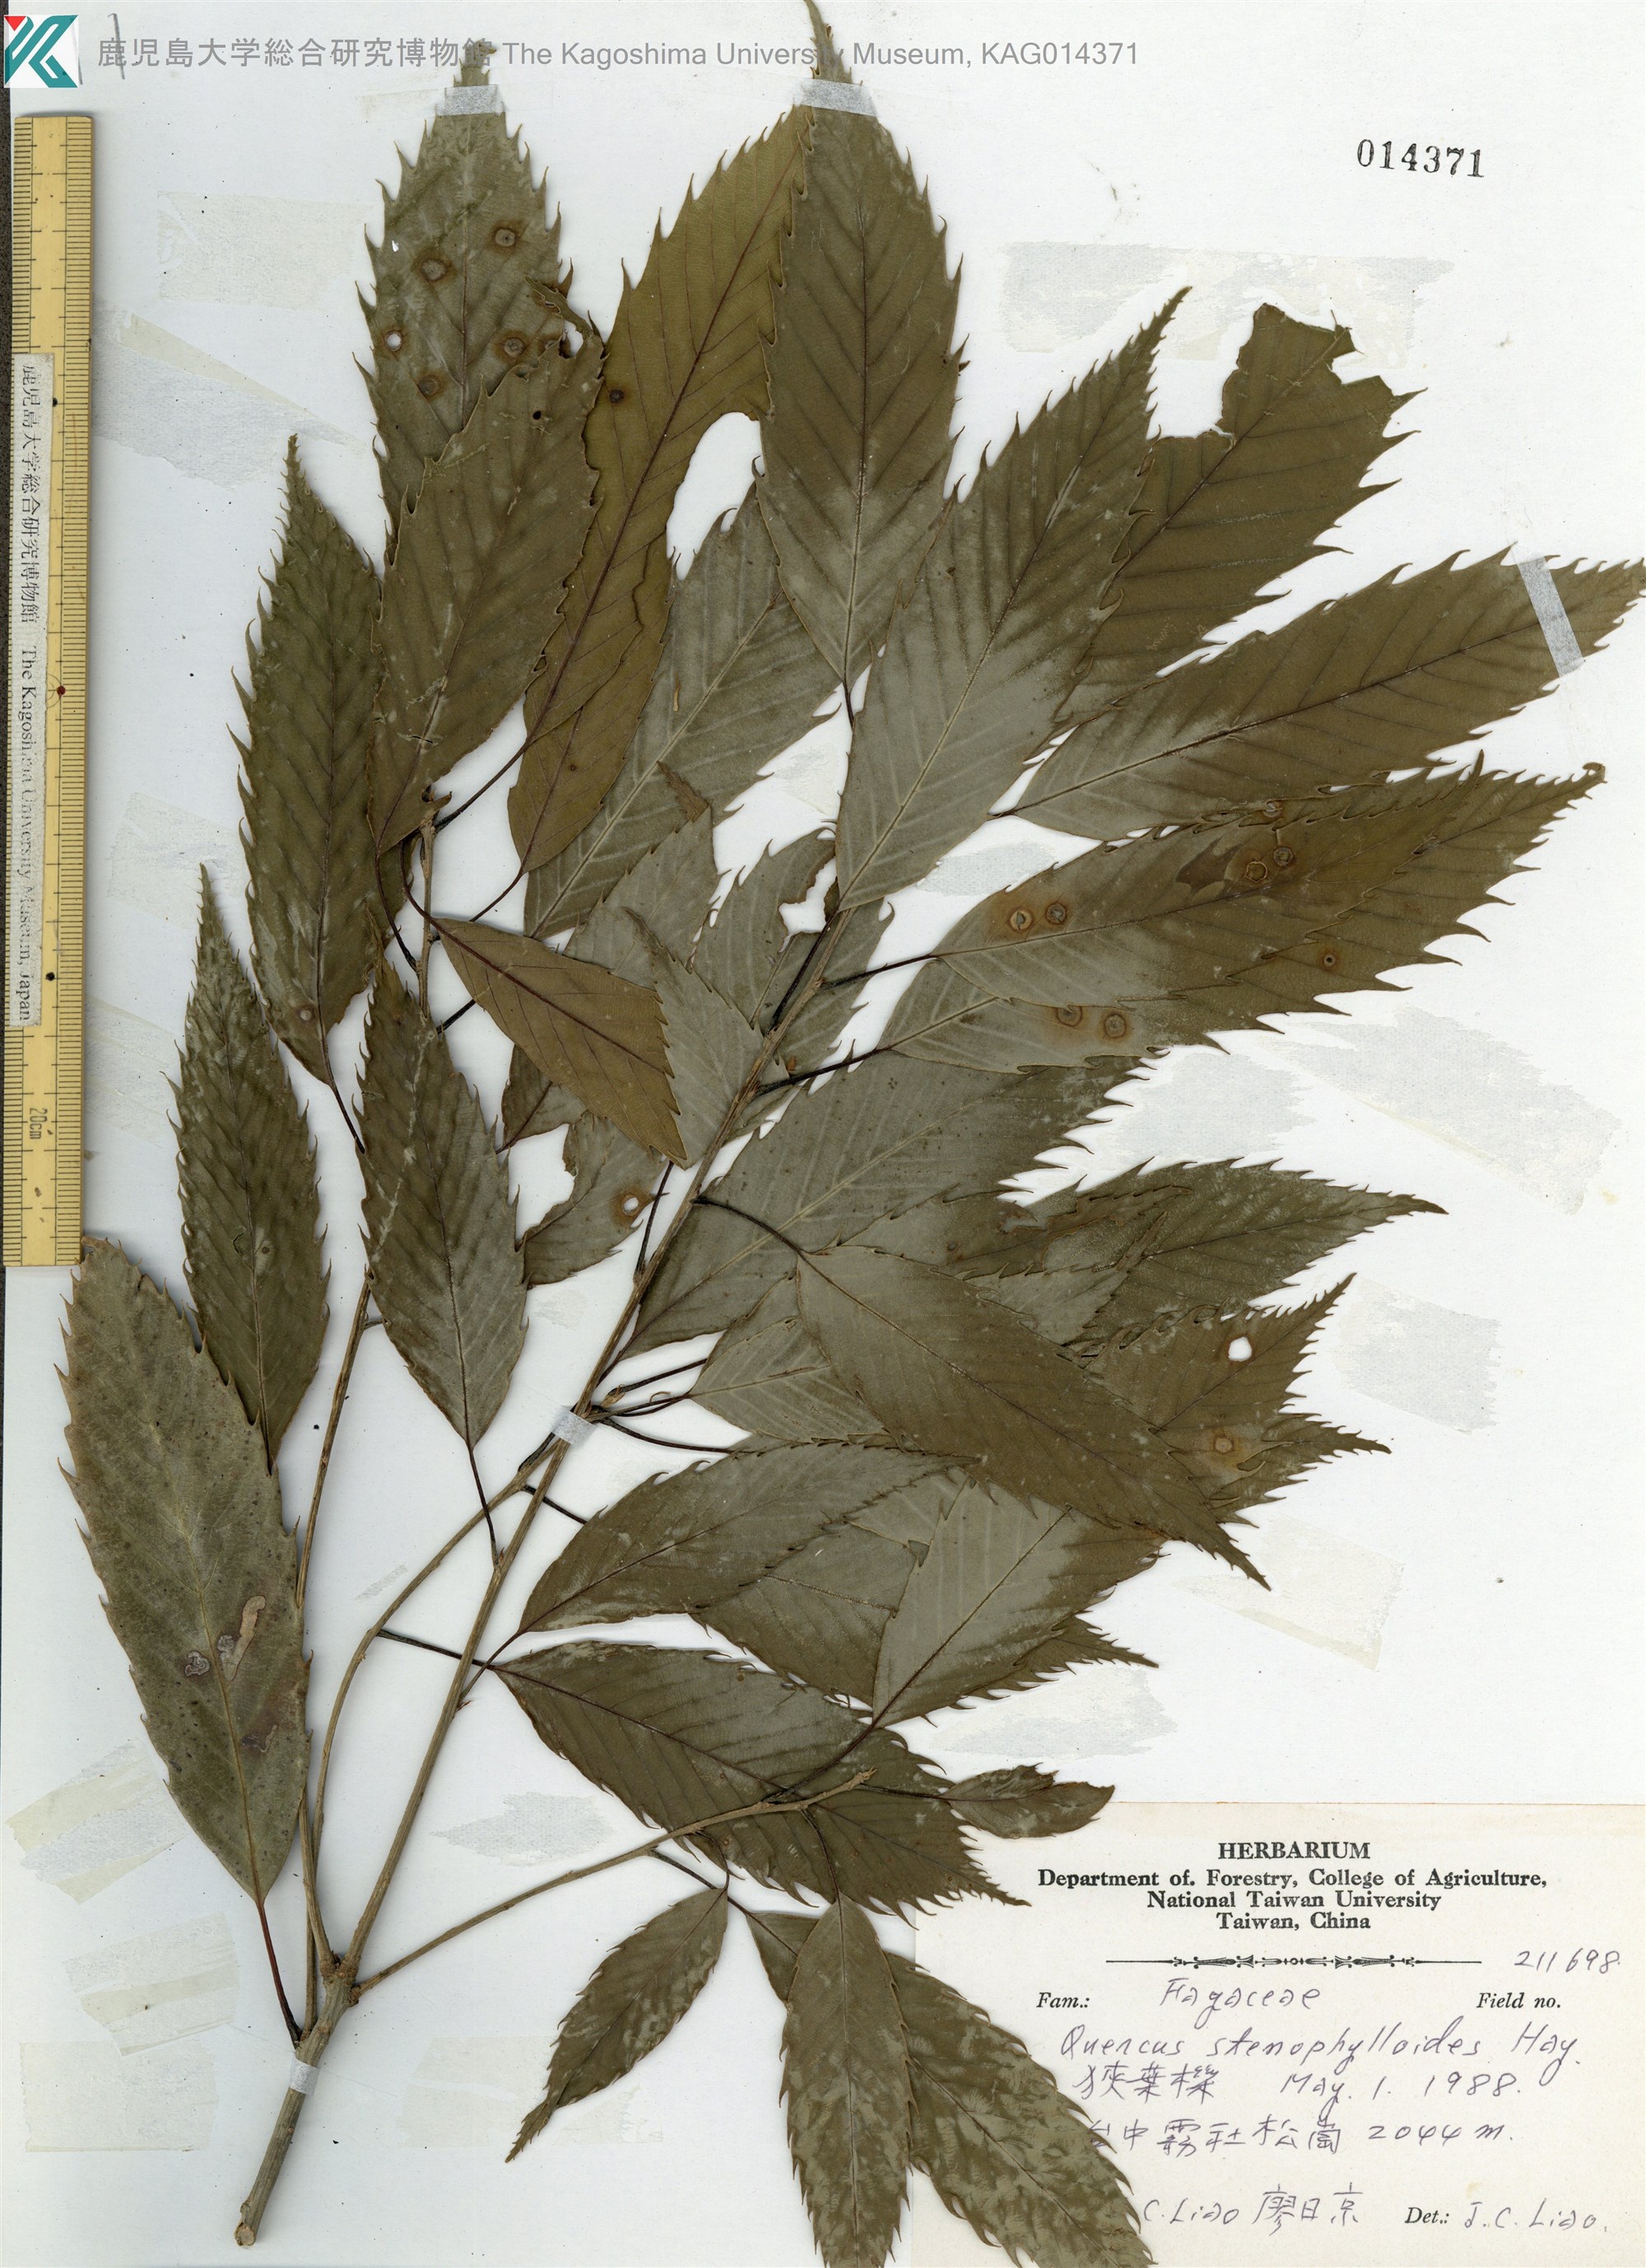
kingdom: Plantae
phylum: Tracheophyta
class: Magnoliopsida
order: Fagales
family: Fagaceae
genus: Quercus
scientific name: Quercus stenophylloides
